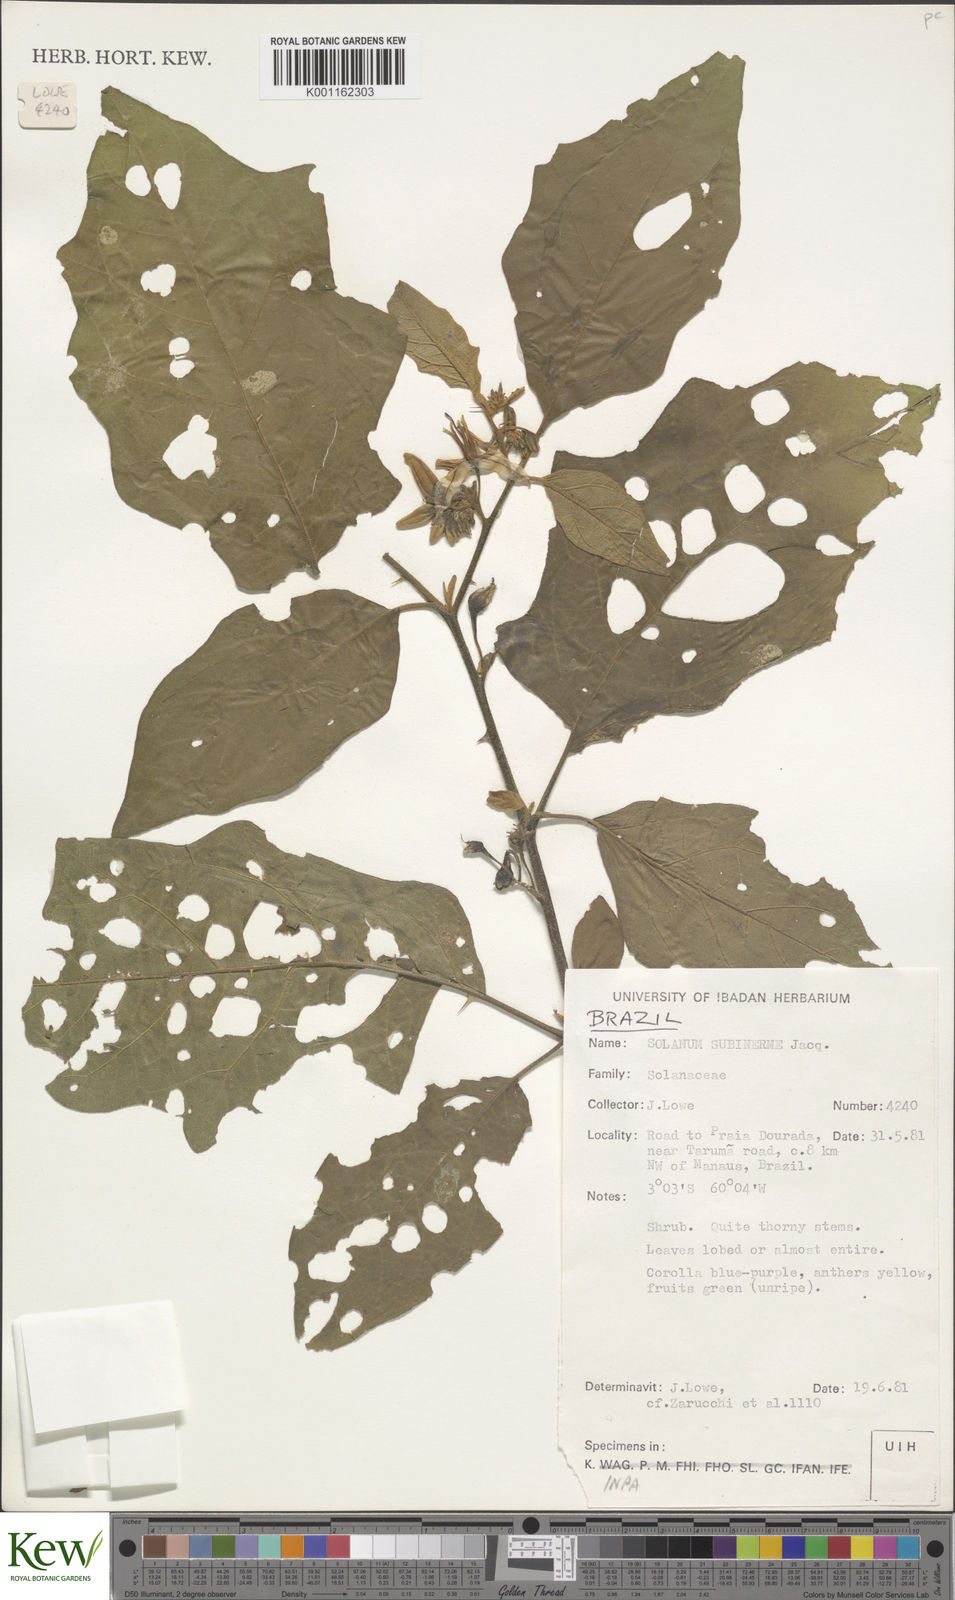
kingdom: Plantae
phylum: Tracheophyta
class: Magnoliopsida
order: Solanales
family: Solanaceae
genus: Solanum
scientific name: Solanum subinerme
